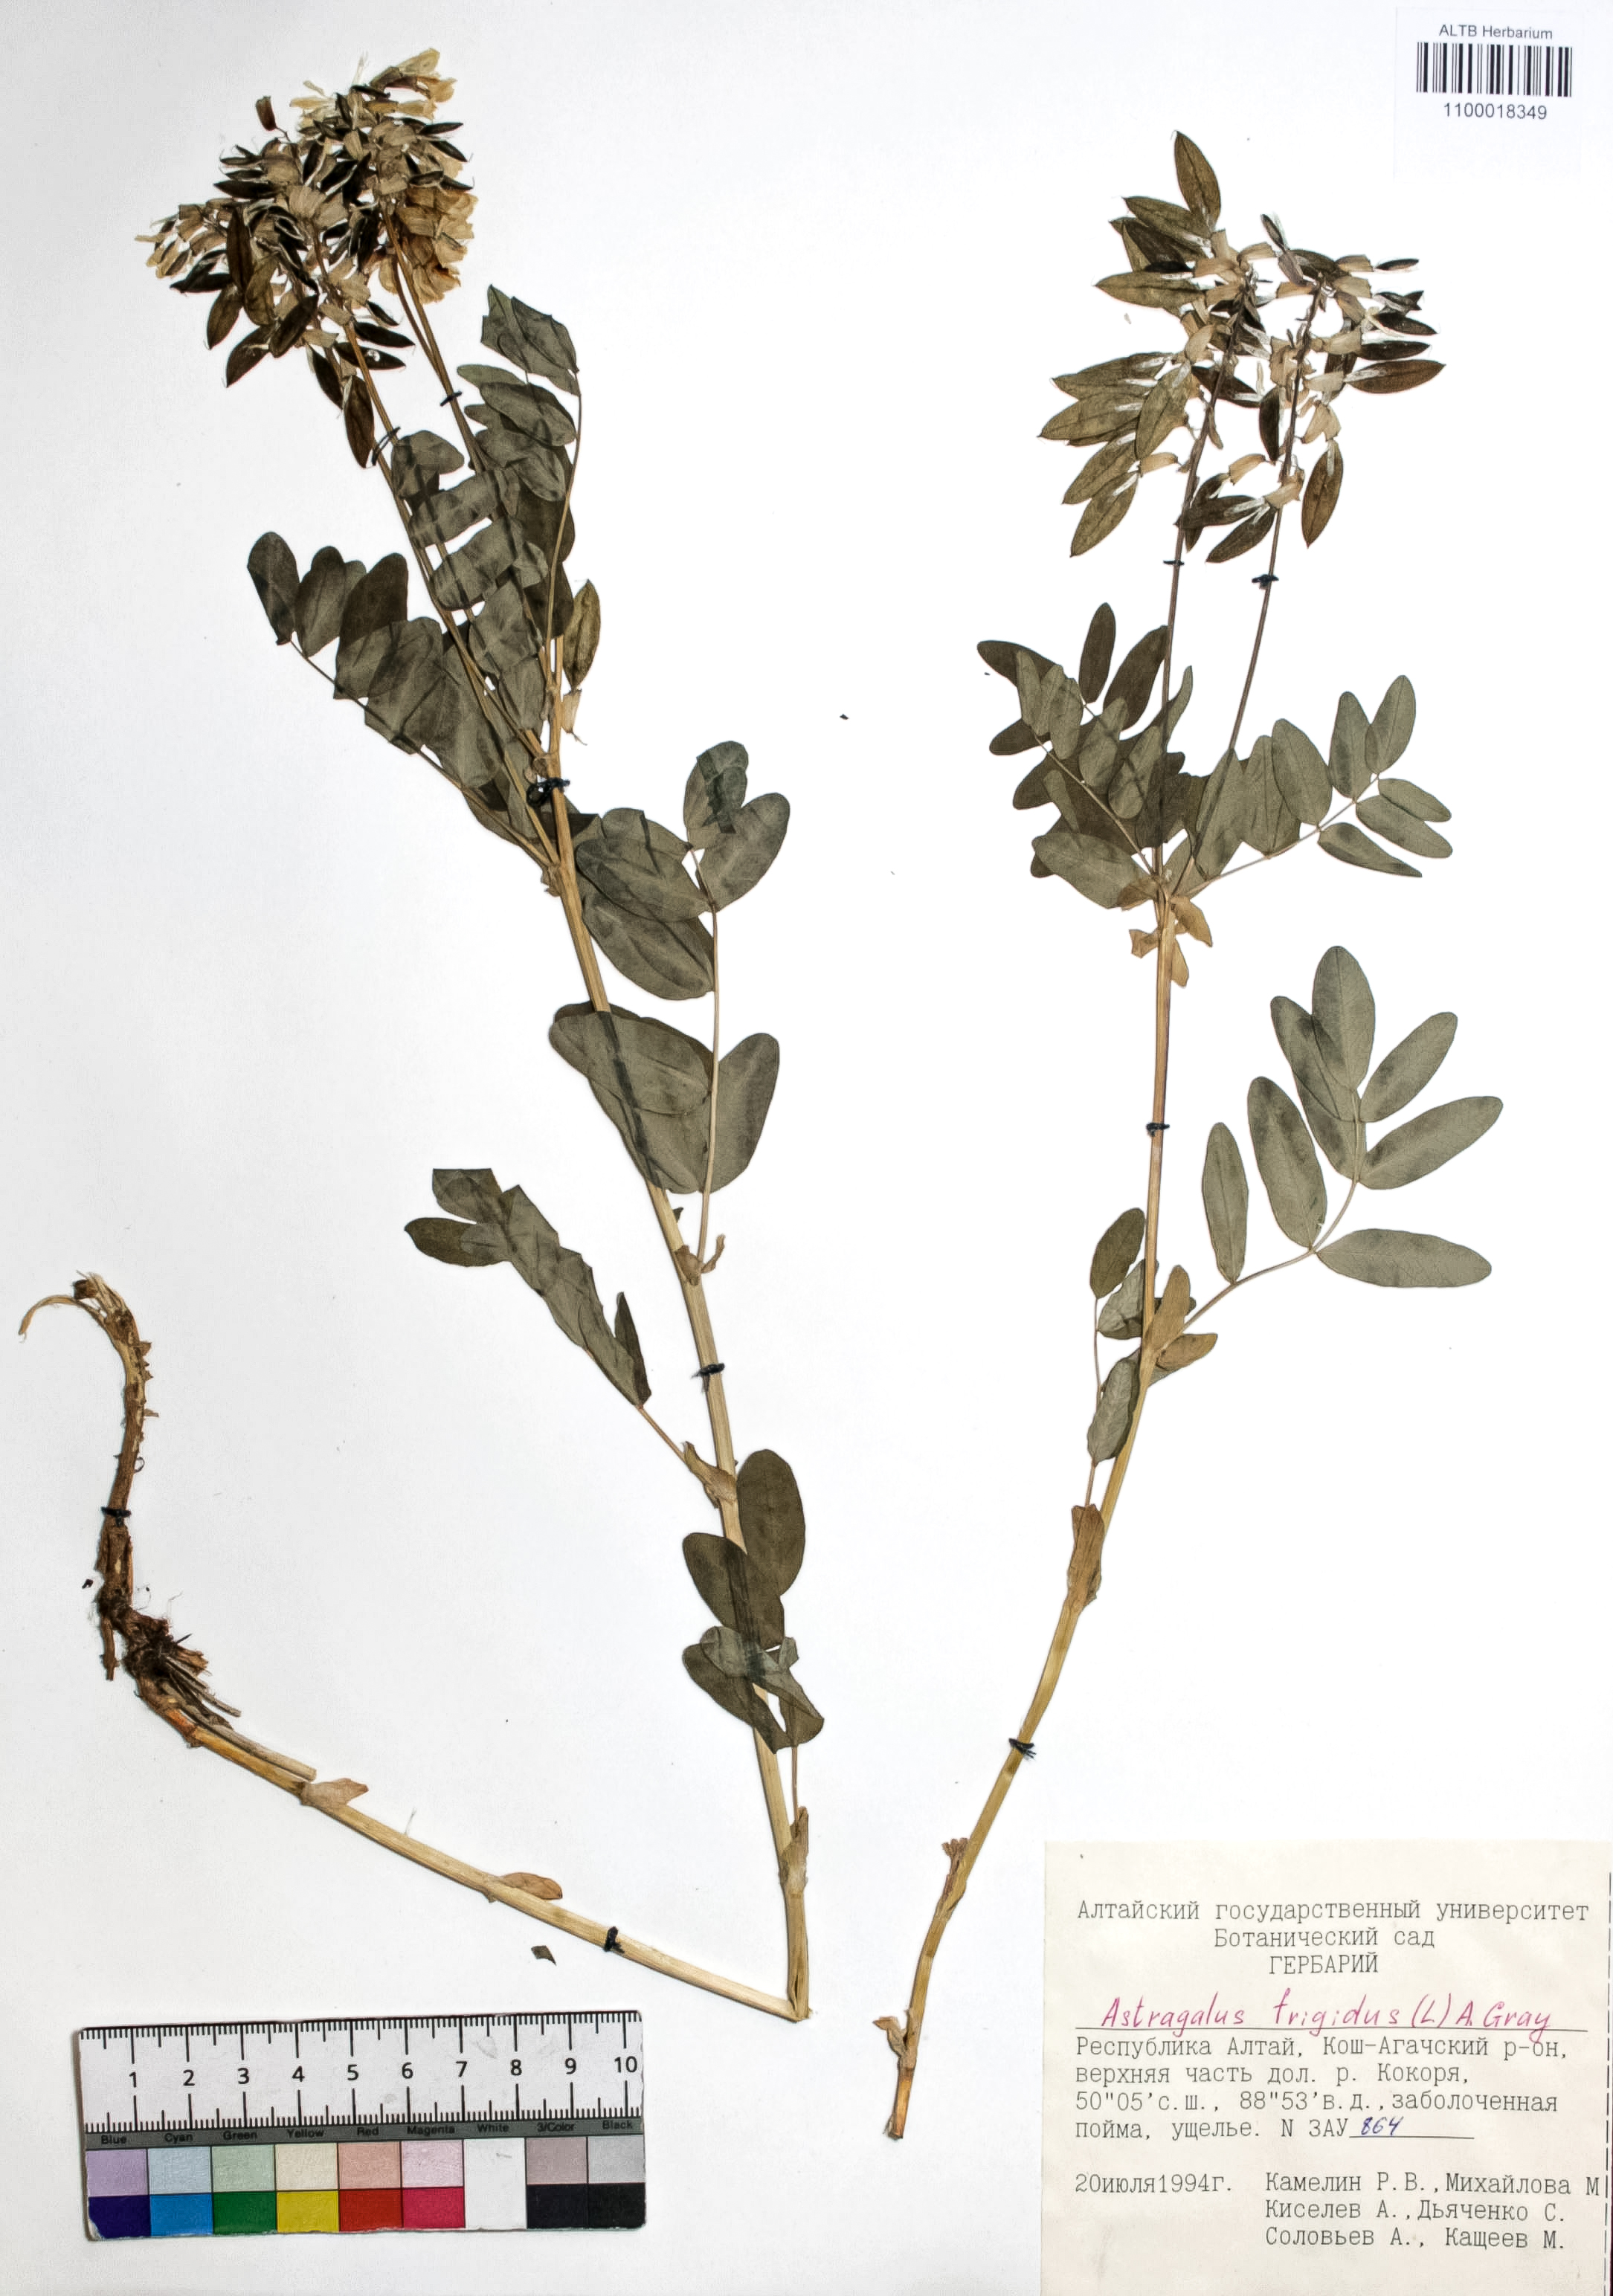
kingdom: Plantae
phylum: Tracheophyta
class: Magnoliopsida
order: Fabales
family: Fabaceae
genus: Astragalus
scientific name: Astragalus frigidus
